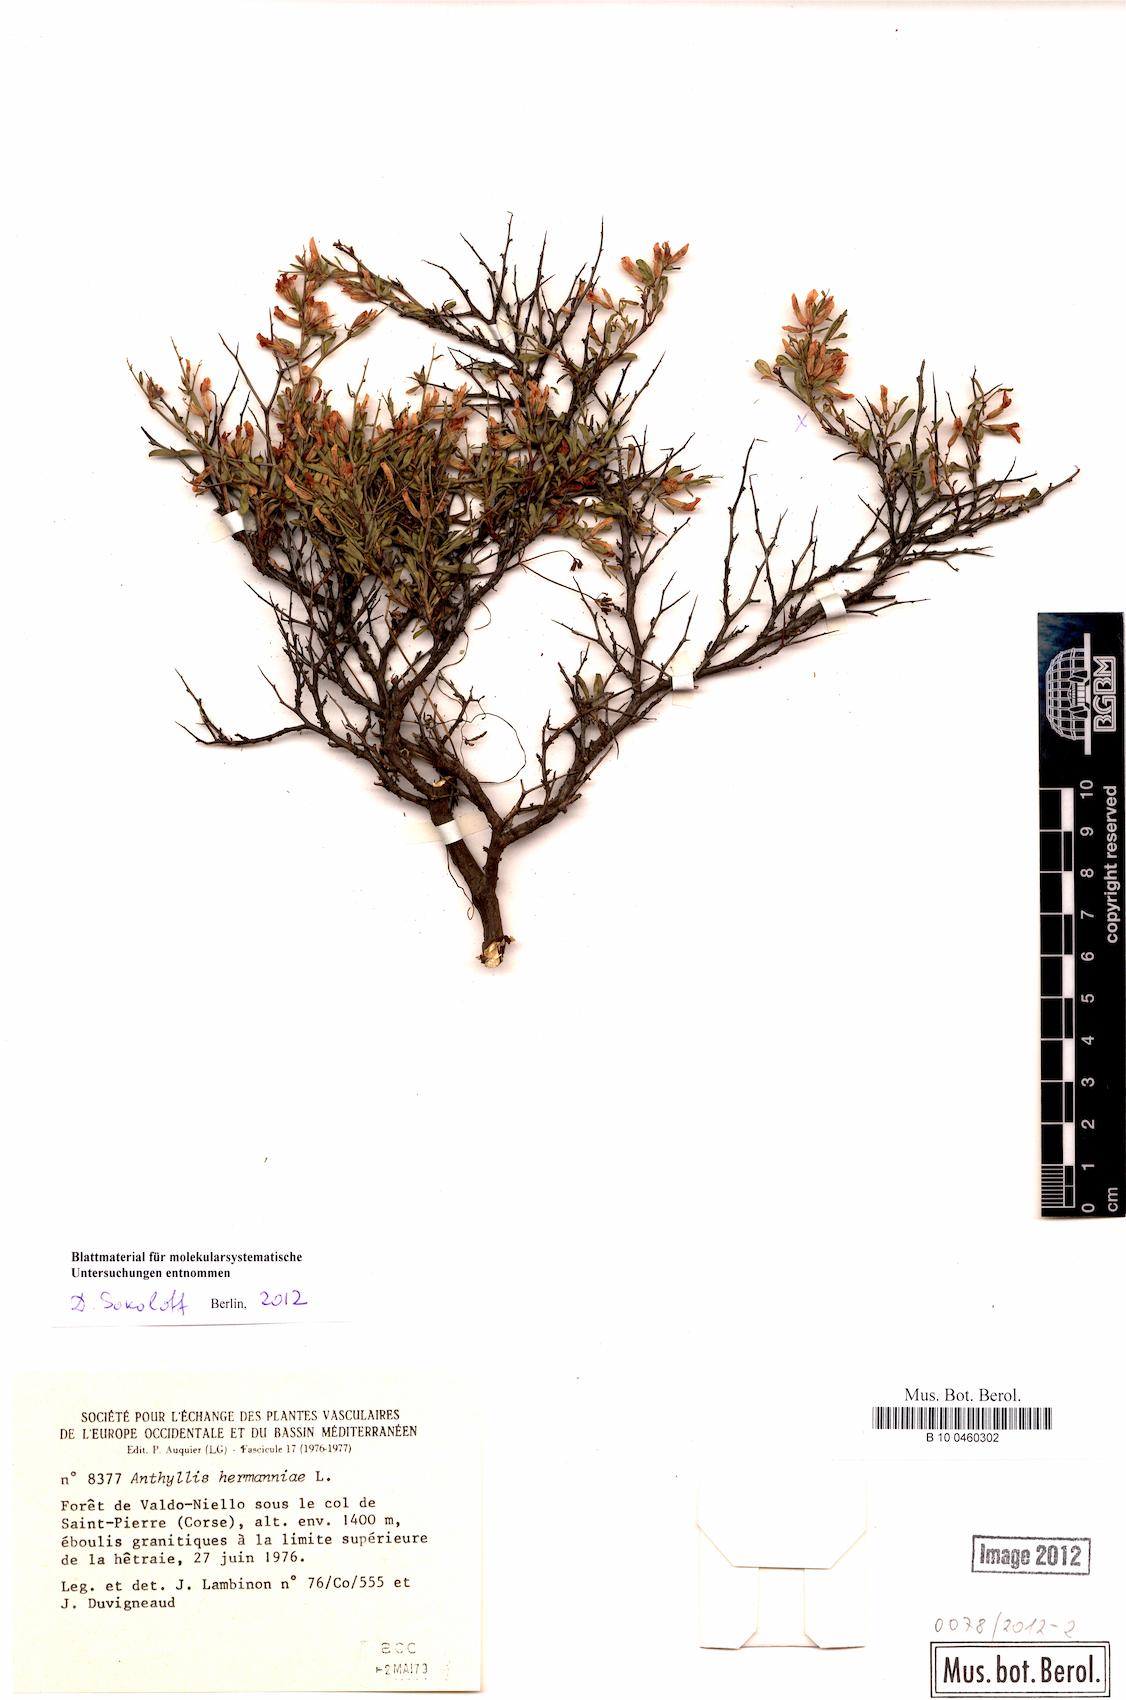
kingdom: Plantae
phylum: Tracheophyta
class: Magnoliopsida
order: Fabales
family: Fabaceae
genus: Anthyllis
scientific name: Anthyllis hermanniae
